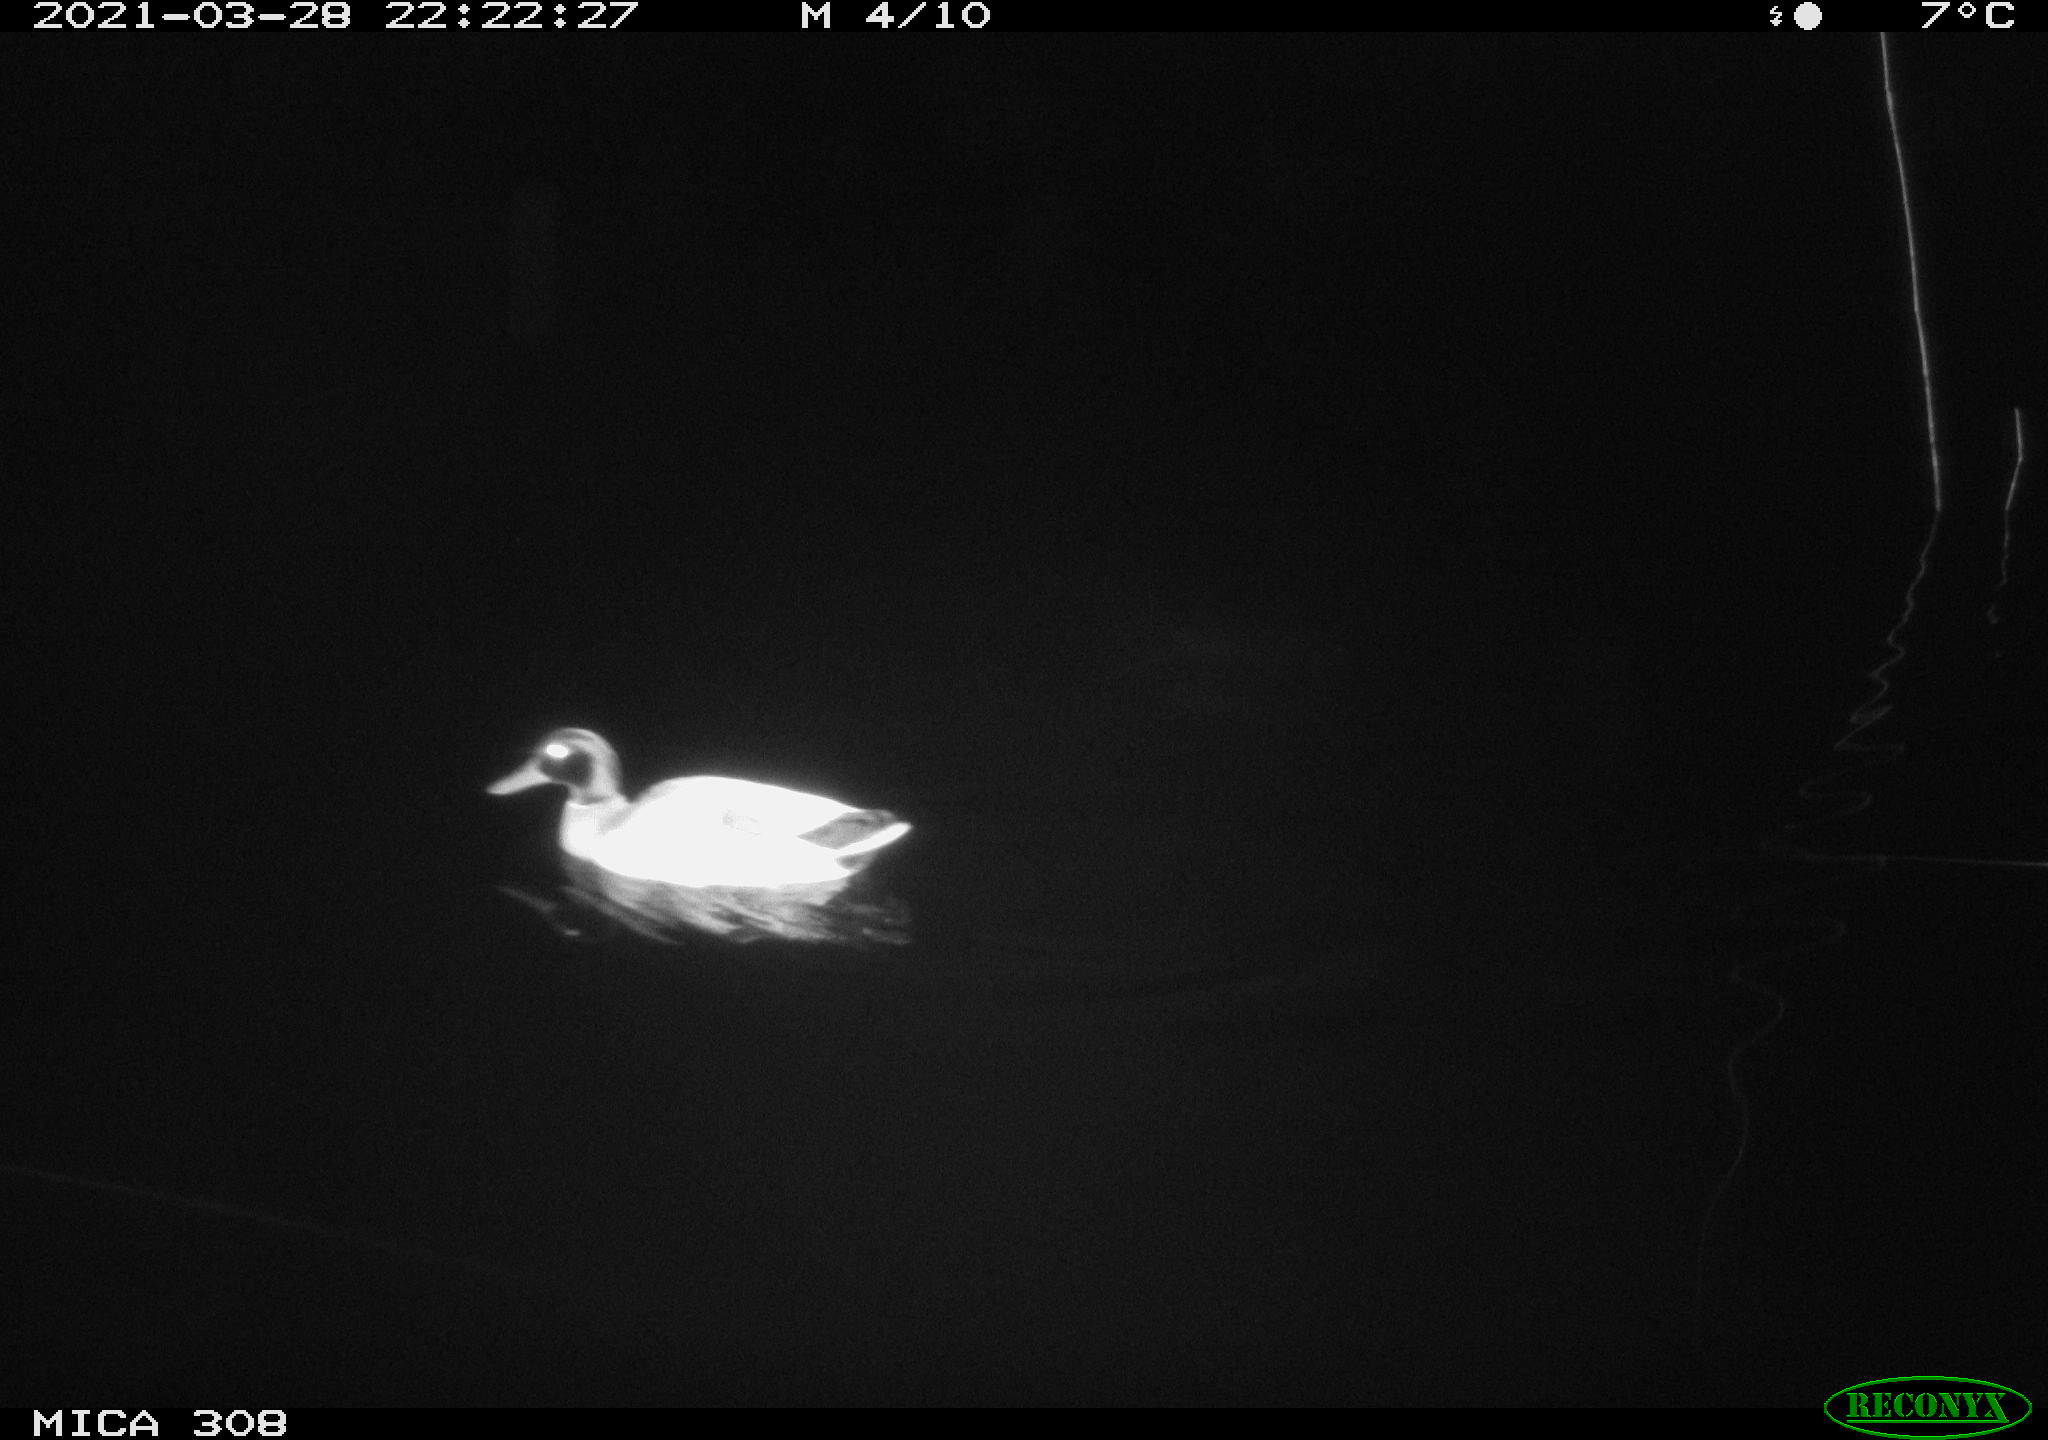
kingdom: Animalia
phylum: Chordata
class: Aves
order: Anseriformes
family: Anatidae
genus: Anas
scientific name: Anas platyrhynchos
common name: Mallard
